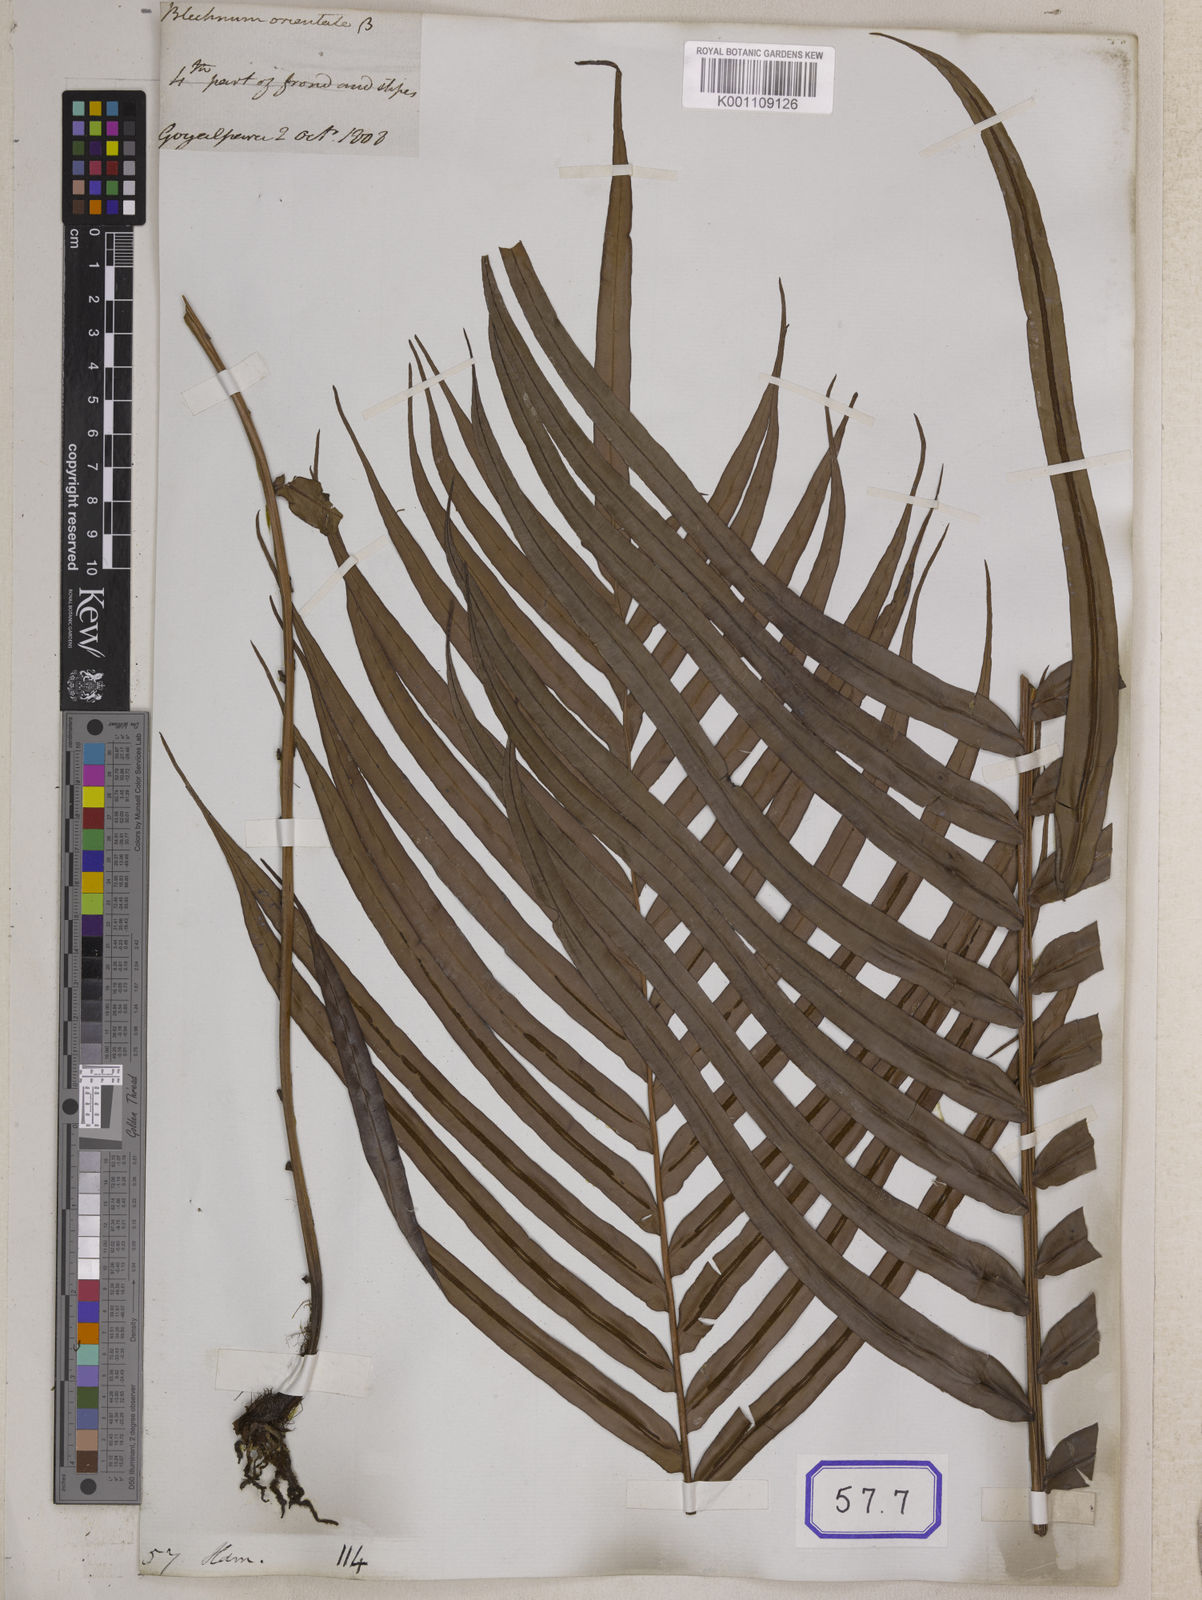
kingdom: Plantae
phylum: Tracheophyta
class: Polypodiopsida
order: Polypodiales
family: Blechnaceae
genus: Blechnopsis
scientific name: Blechnopsis orientalis
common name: Oriental blechnum
